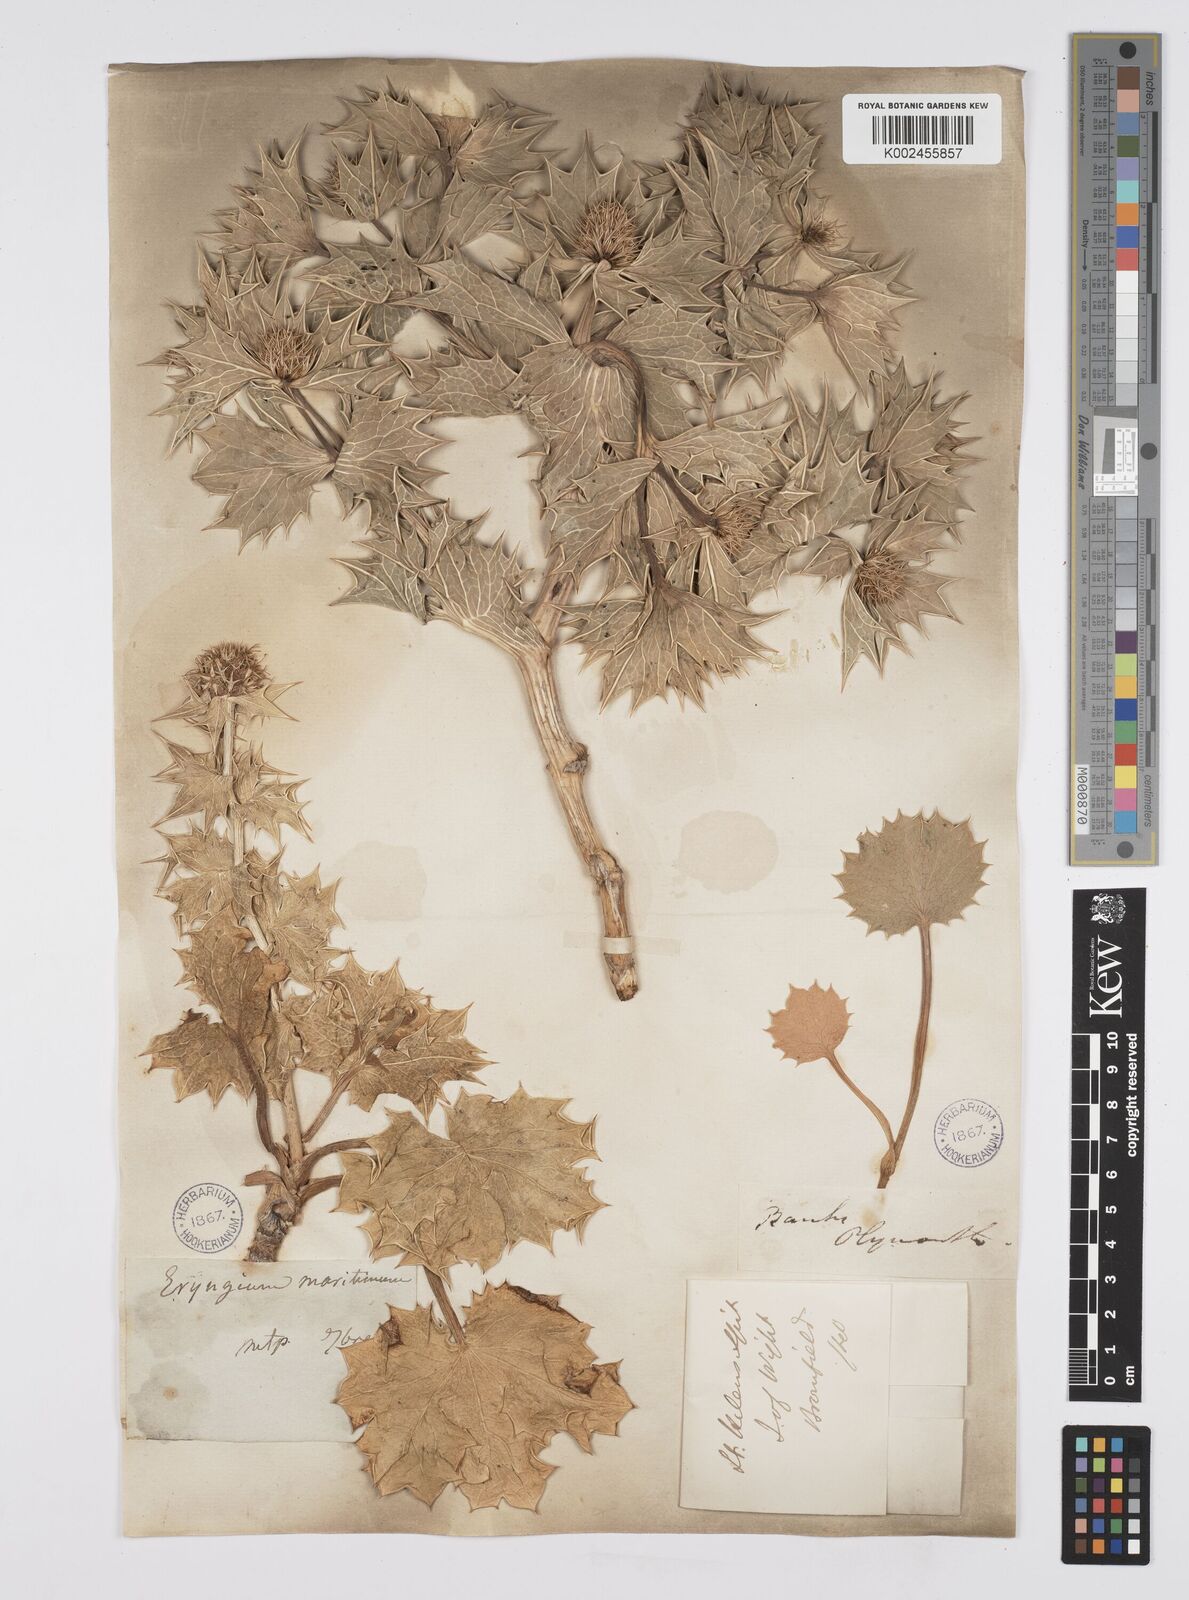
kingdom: Plantae
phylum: Tracheophyta
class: Magnoliopsida
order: Apiales
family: Apiaceae
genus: Eryngium
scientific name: Eryngium maritimum
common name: Sea-holly
